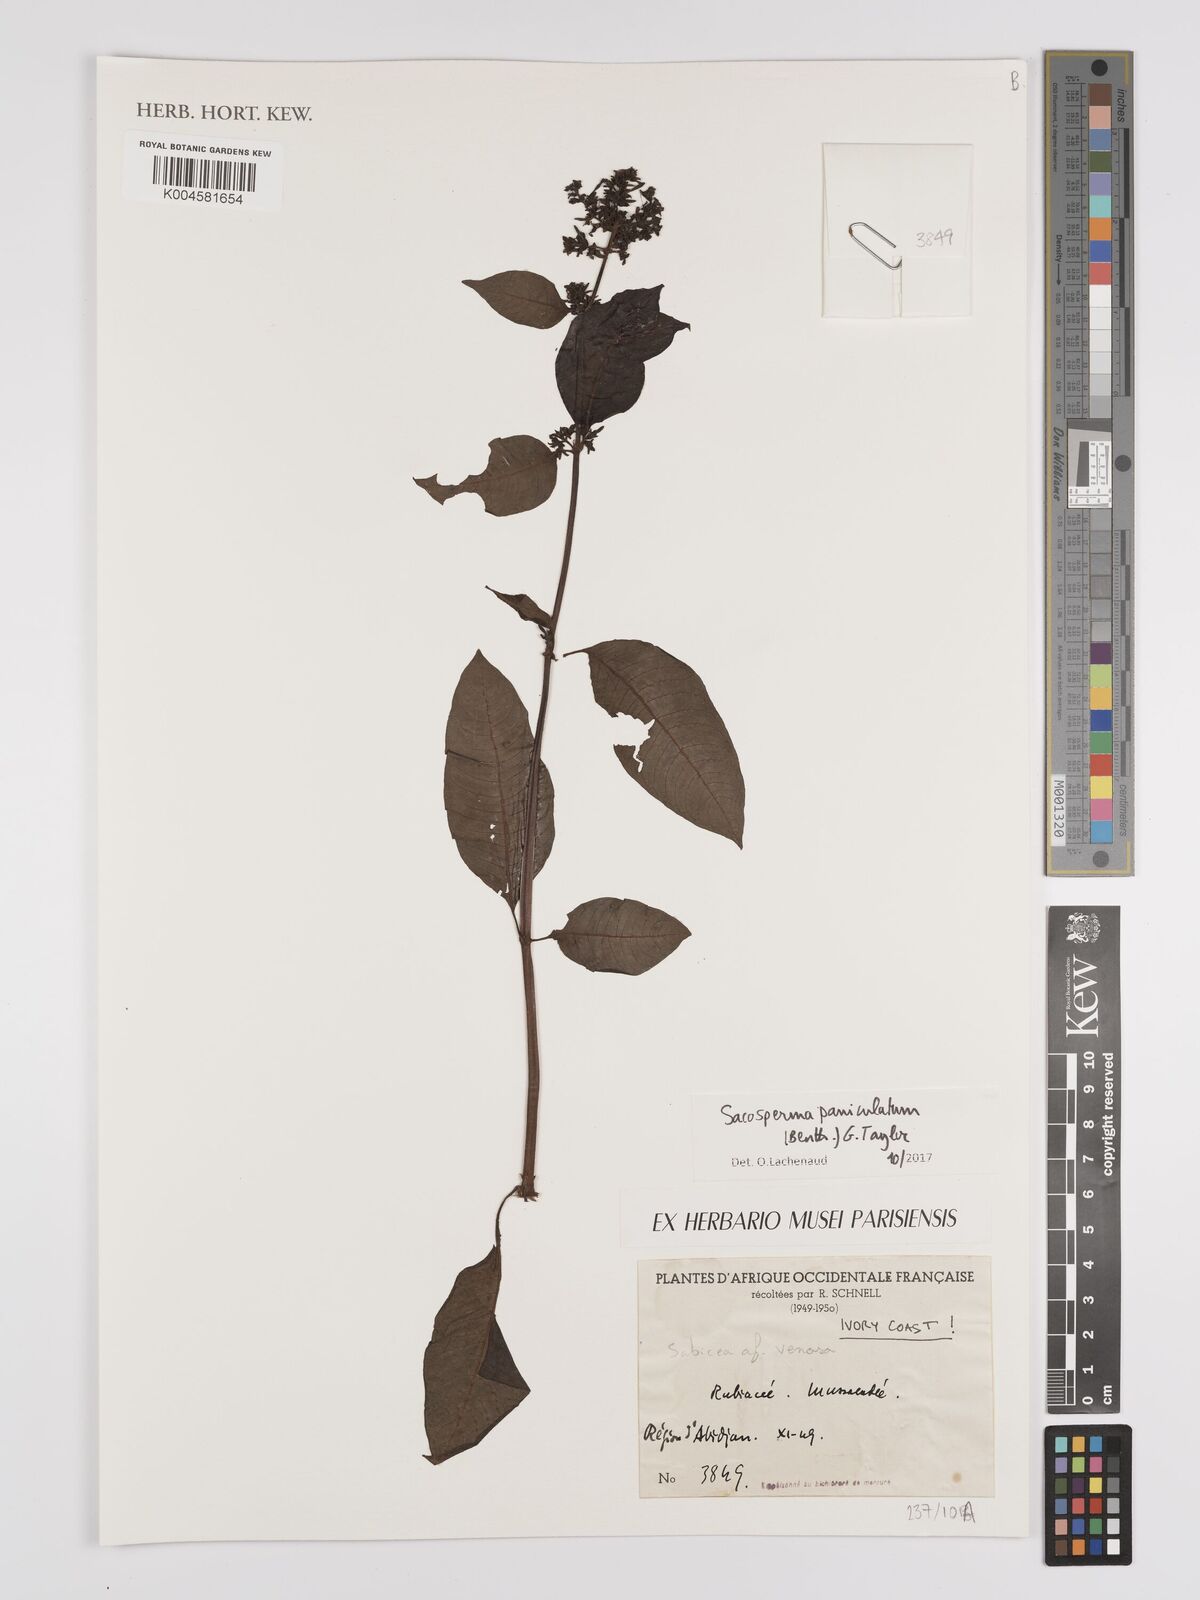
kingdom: Plantae
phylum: Tracheophyta
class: Magnoliopsida
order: Gentianales
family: Rubiaceae
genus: Sacosperma
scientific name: Sacosperma paniculatum
